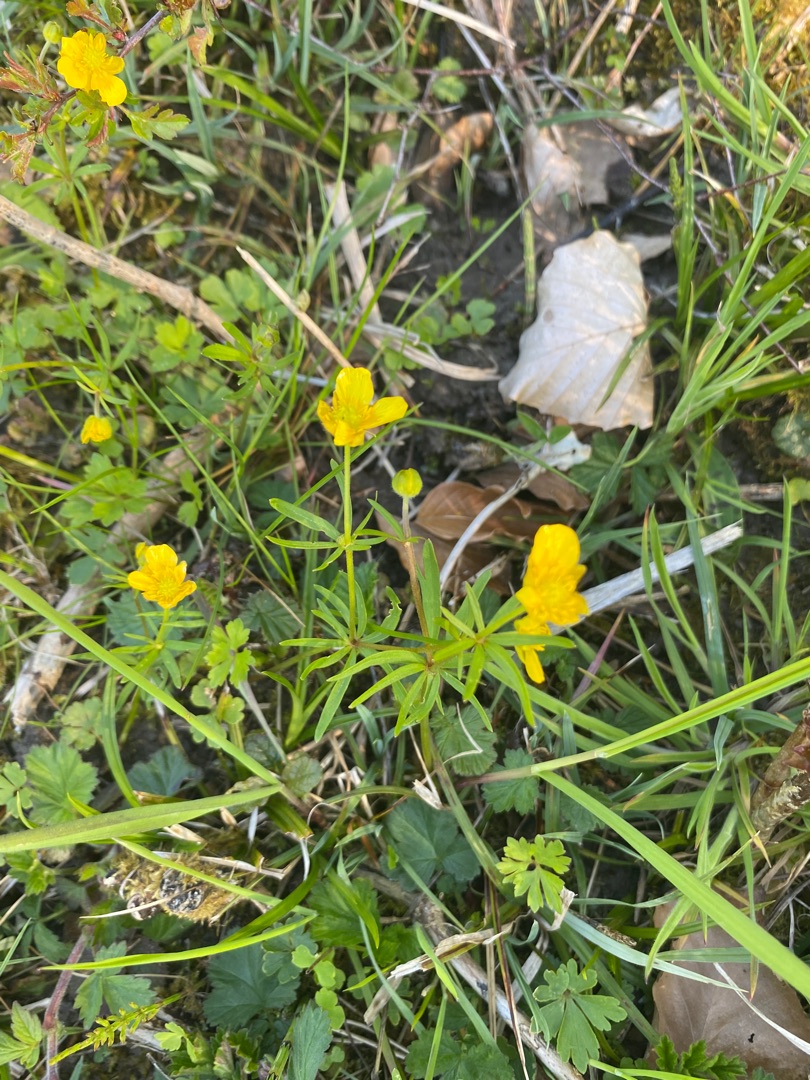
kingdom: Plantae
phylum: Tracheophyta
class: Magnoliopsida
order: Ranunculales
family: Ranunculaceae
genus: Ranunculus
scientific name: Ranunculus auricomus
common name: Nyrebladet ranunkel
